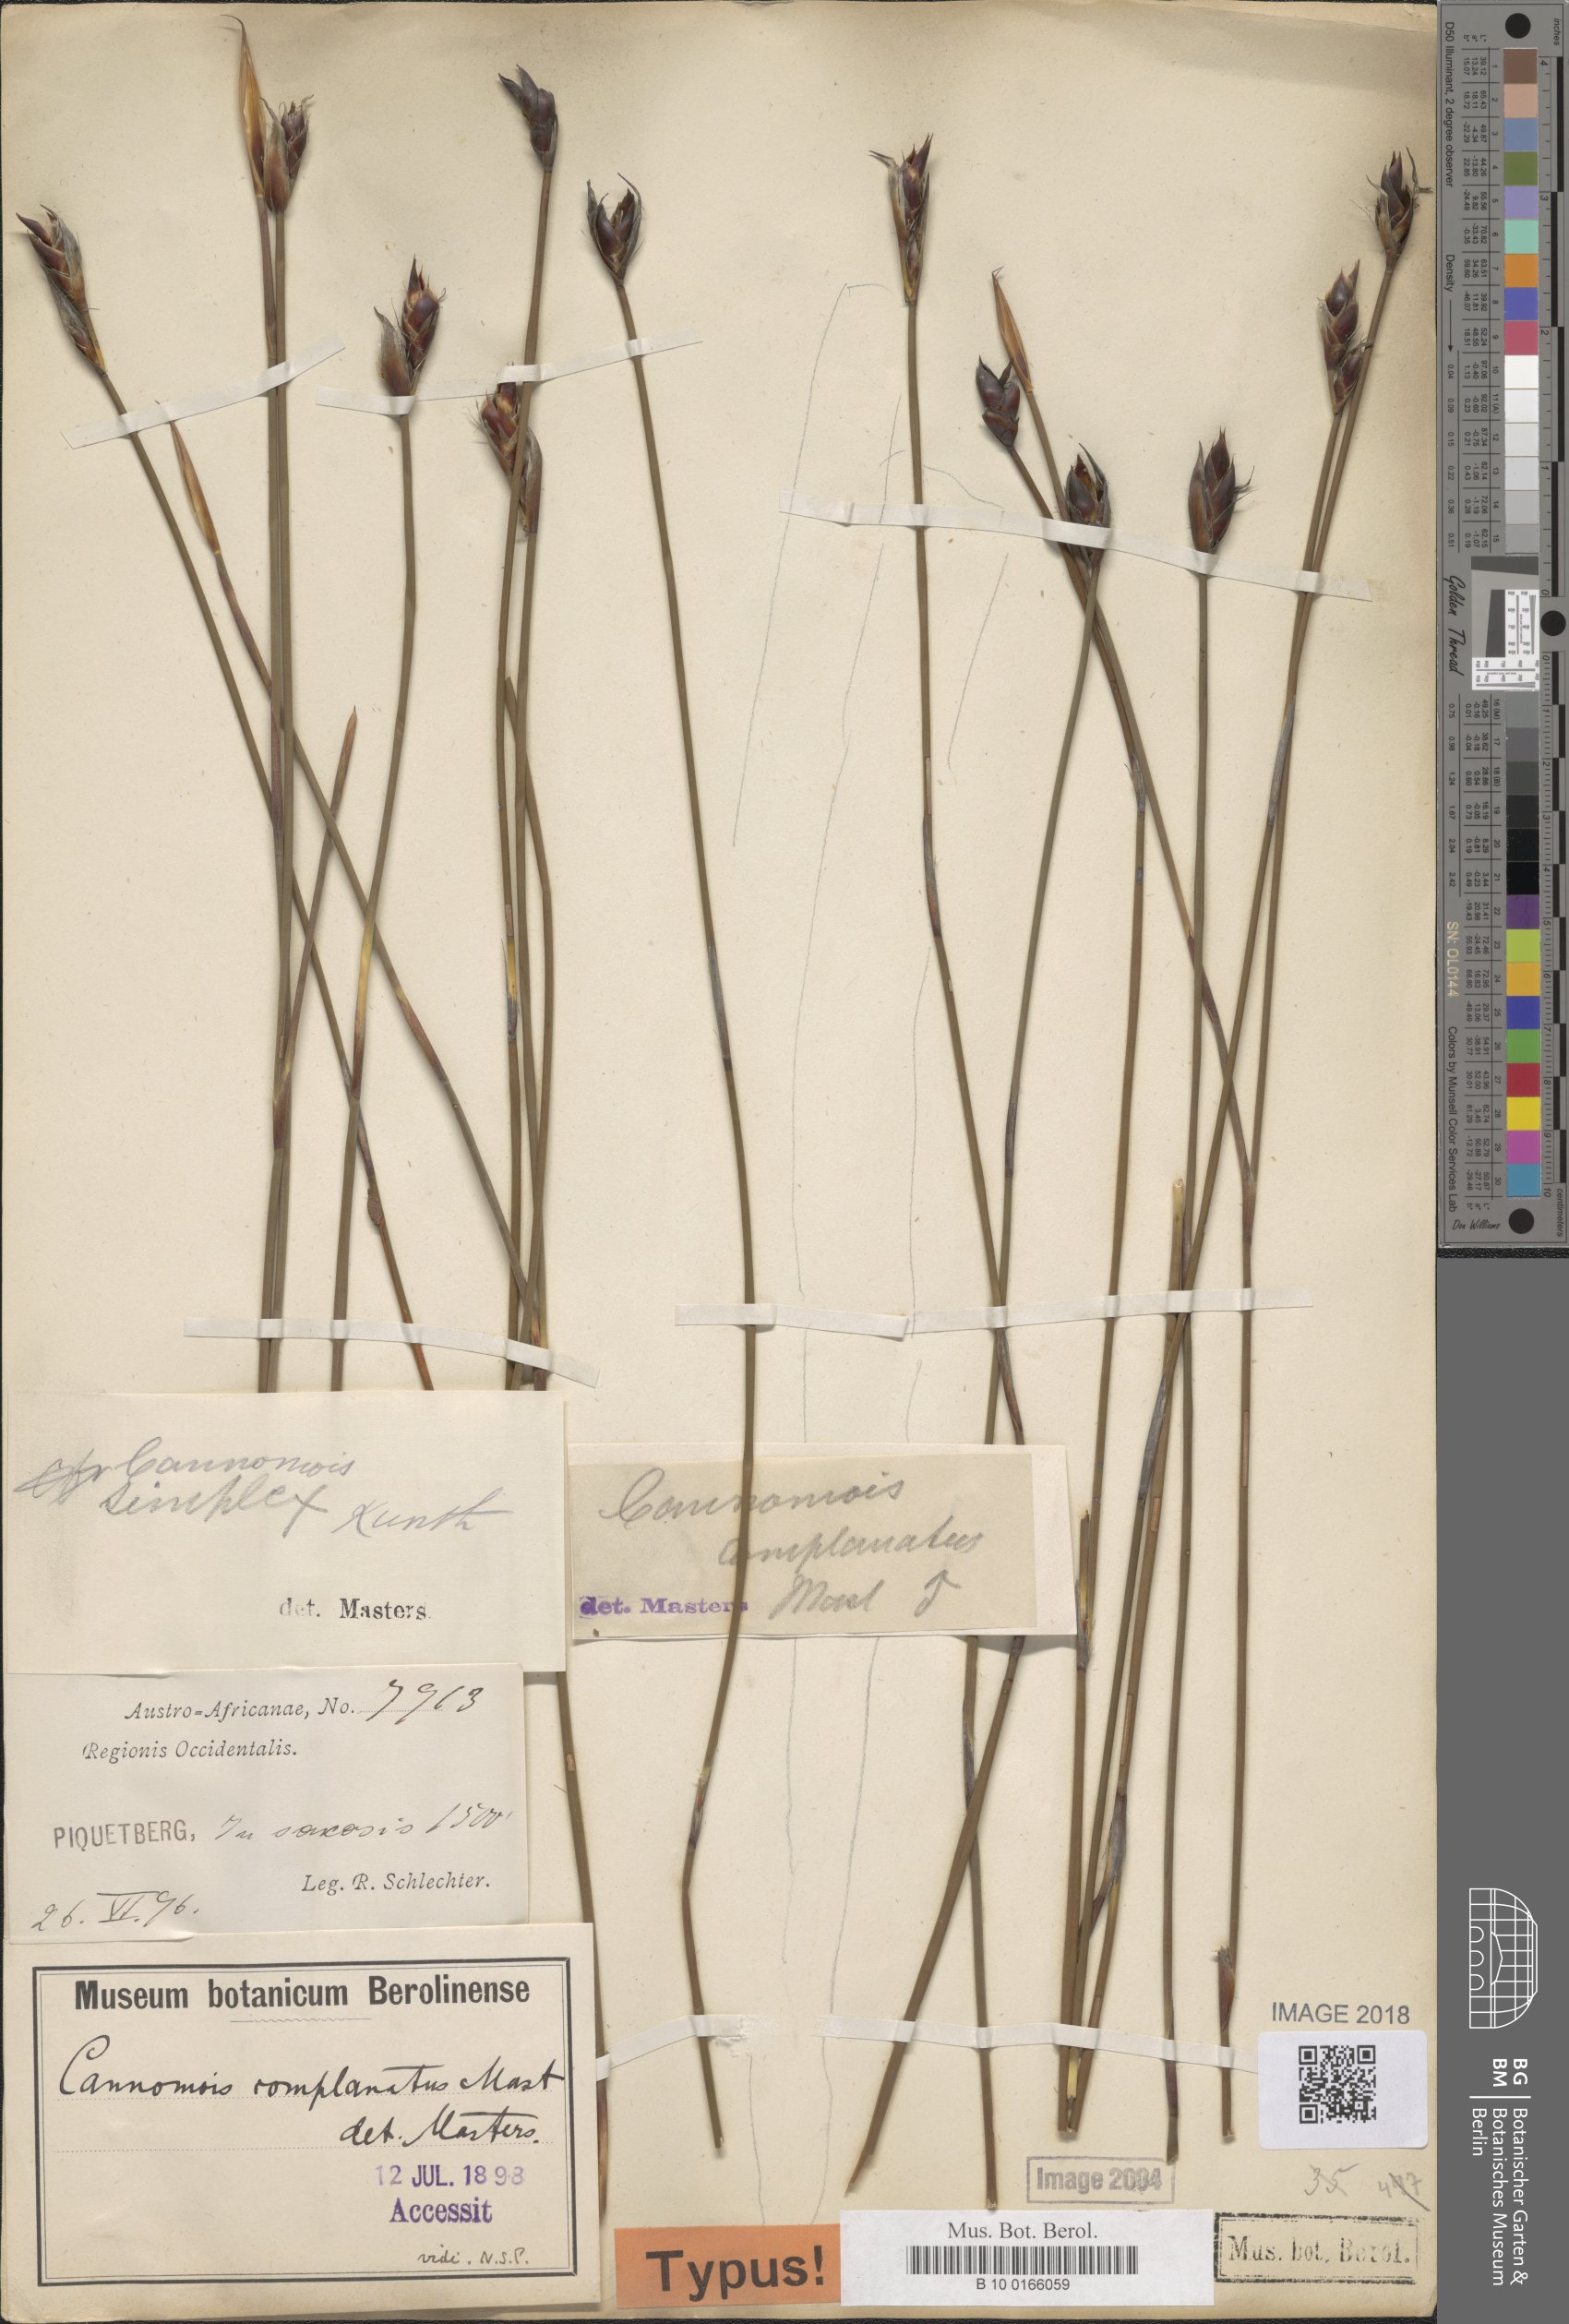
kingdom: Plantae
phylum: Tracheophyta
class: Liliopsida
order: Poales
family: Restionaceae
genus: Cannomois
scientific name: Cannomois parviflora
